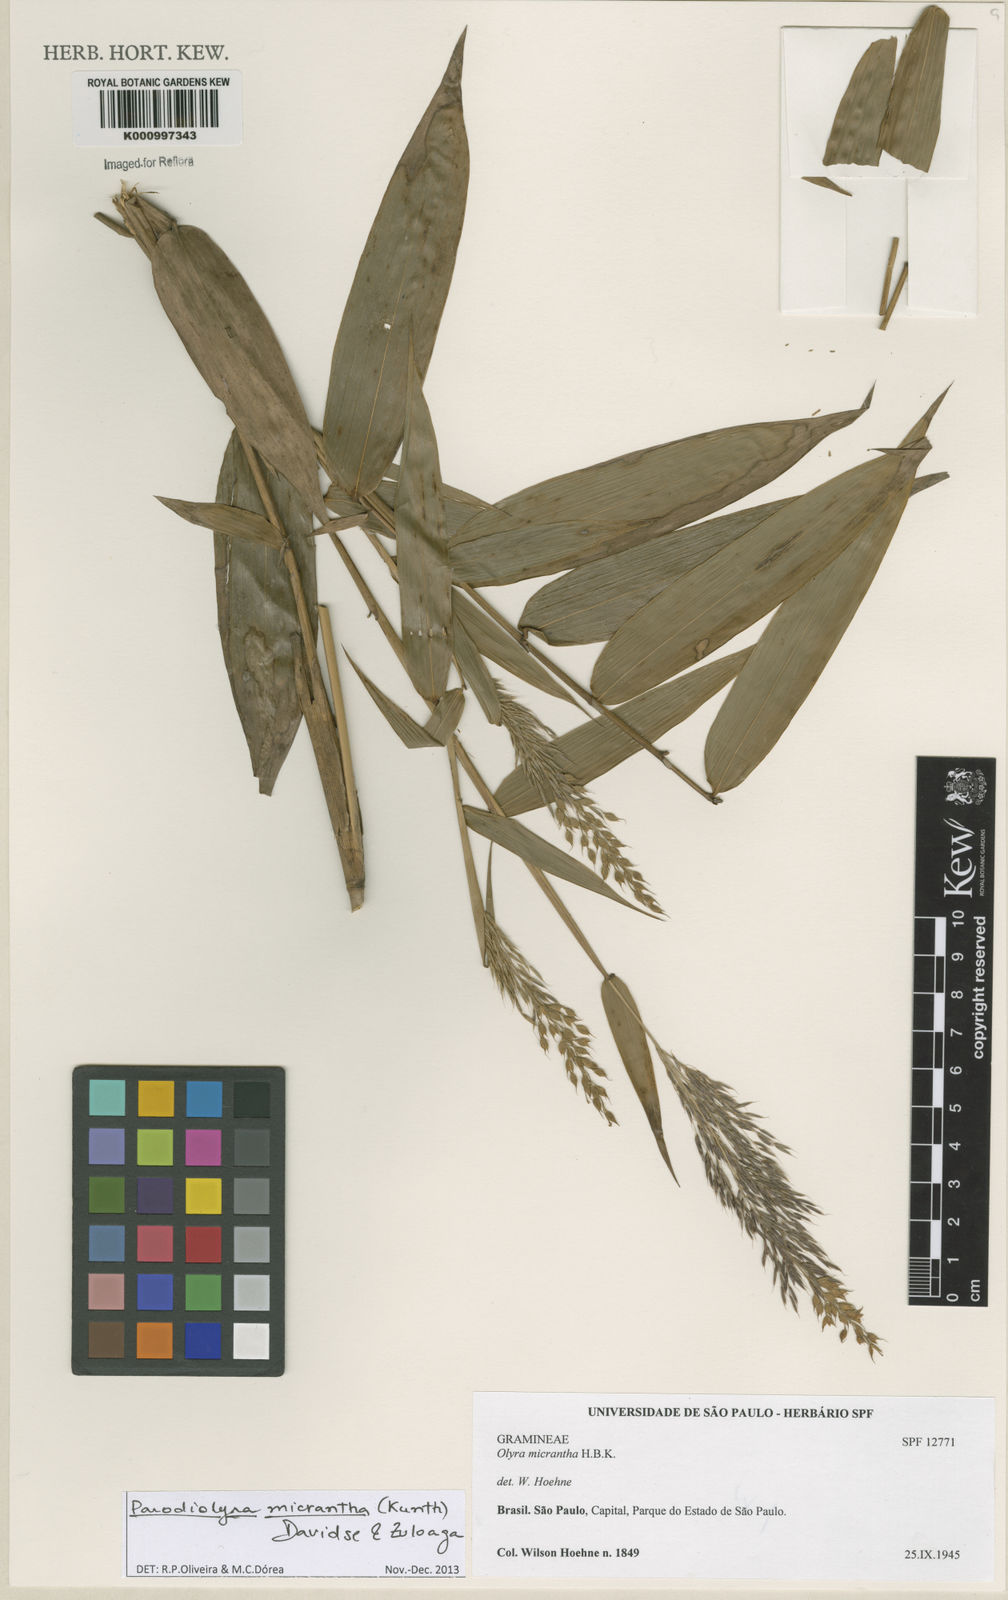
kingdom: Plantae
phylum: Tracheophyta
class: Liliopsida
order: Poales
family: Poaceae
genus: Taquara
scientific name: Taquara micrantha
